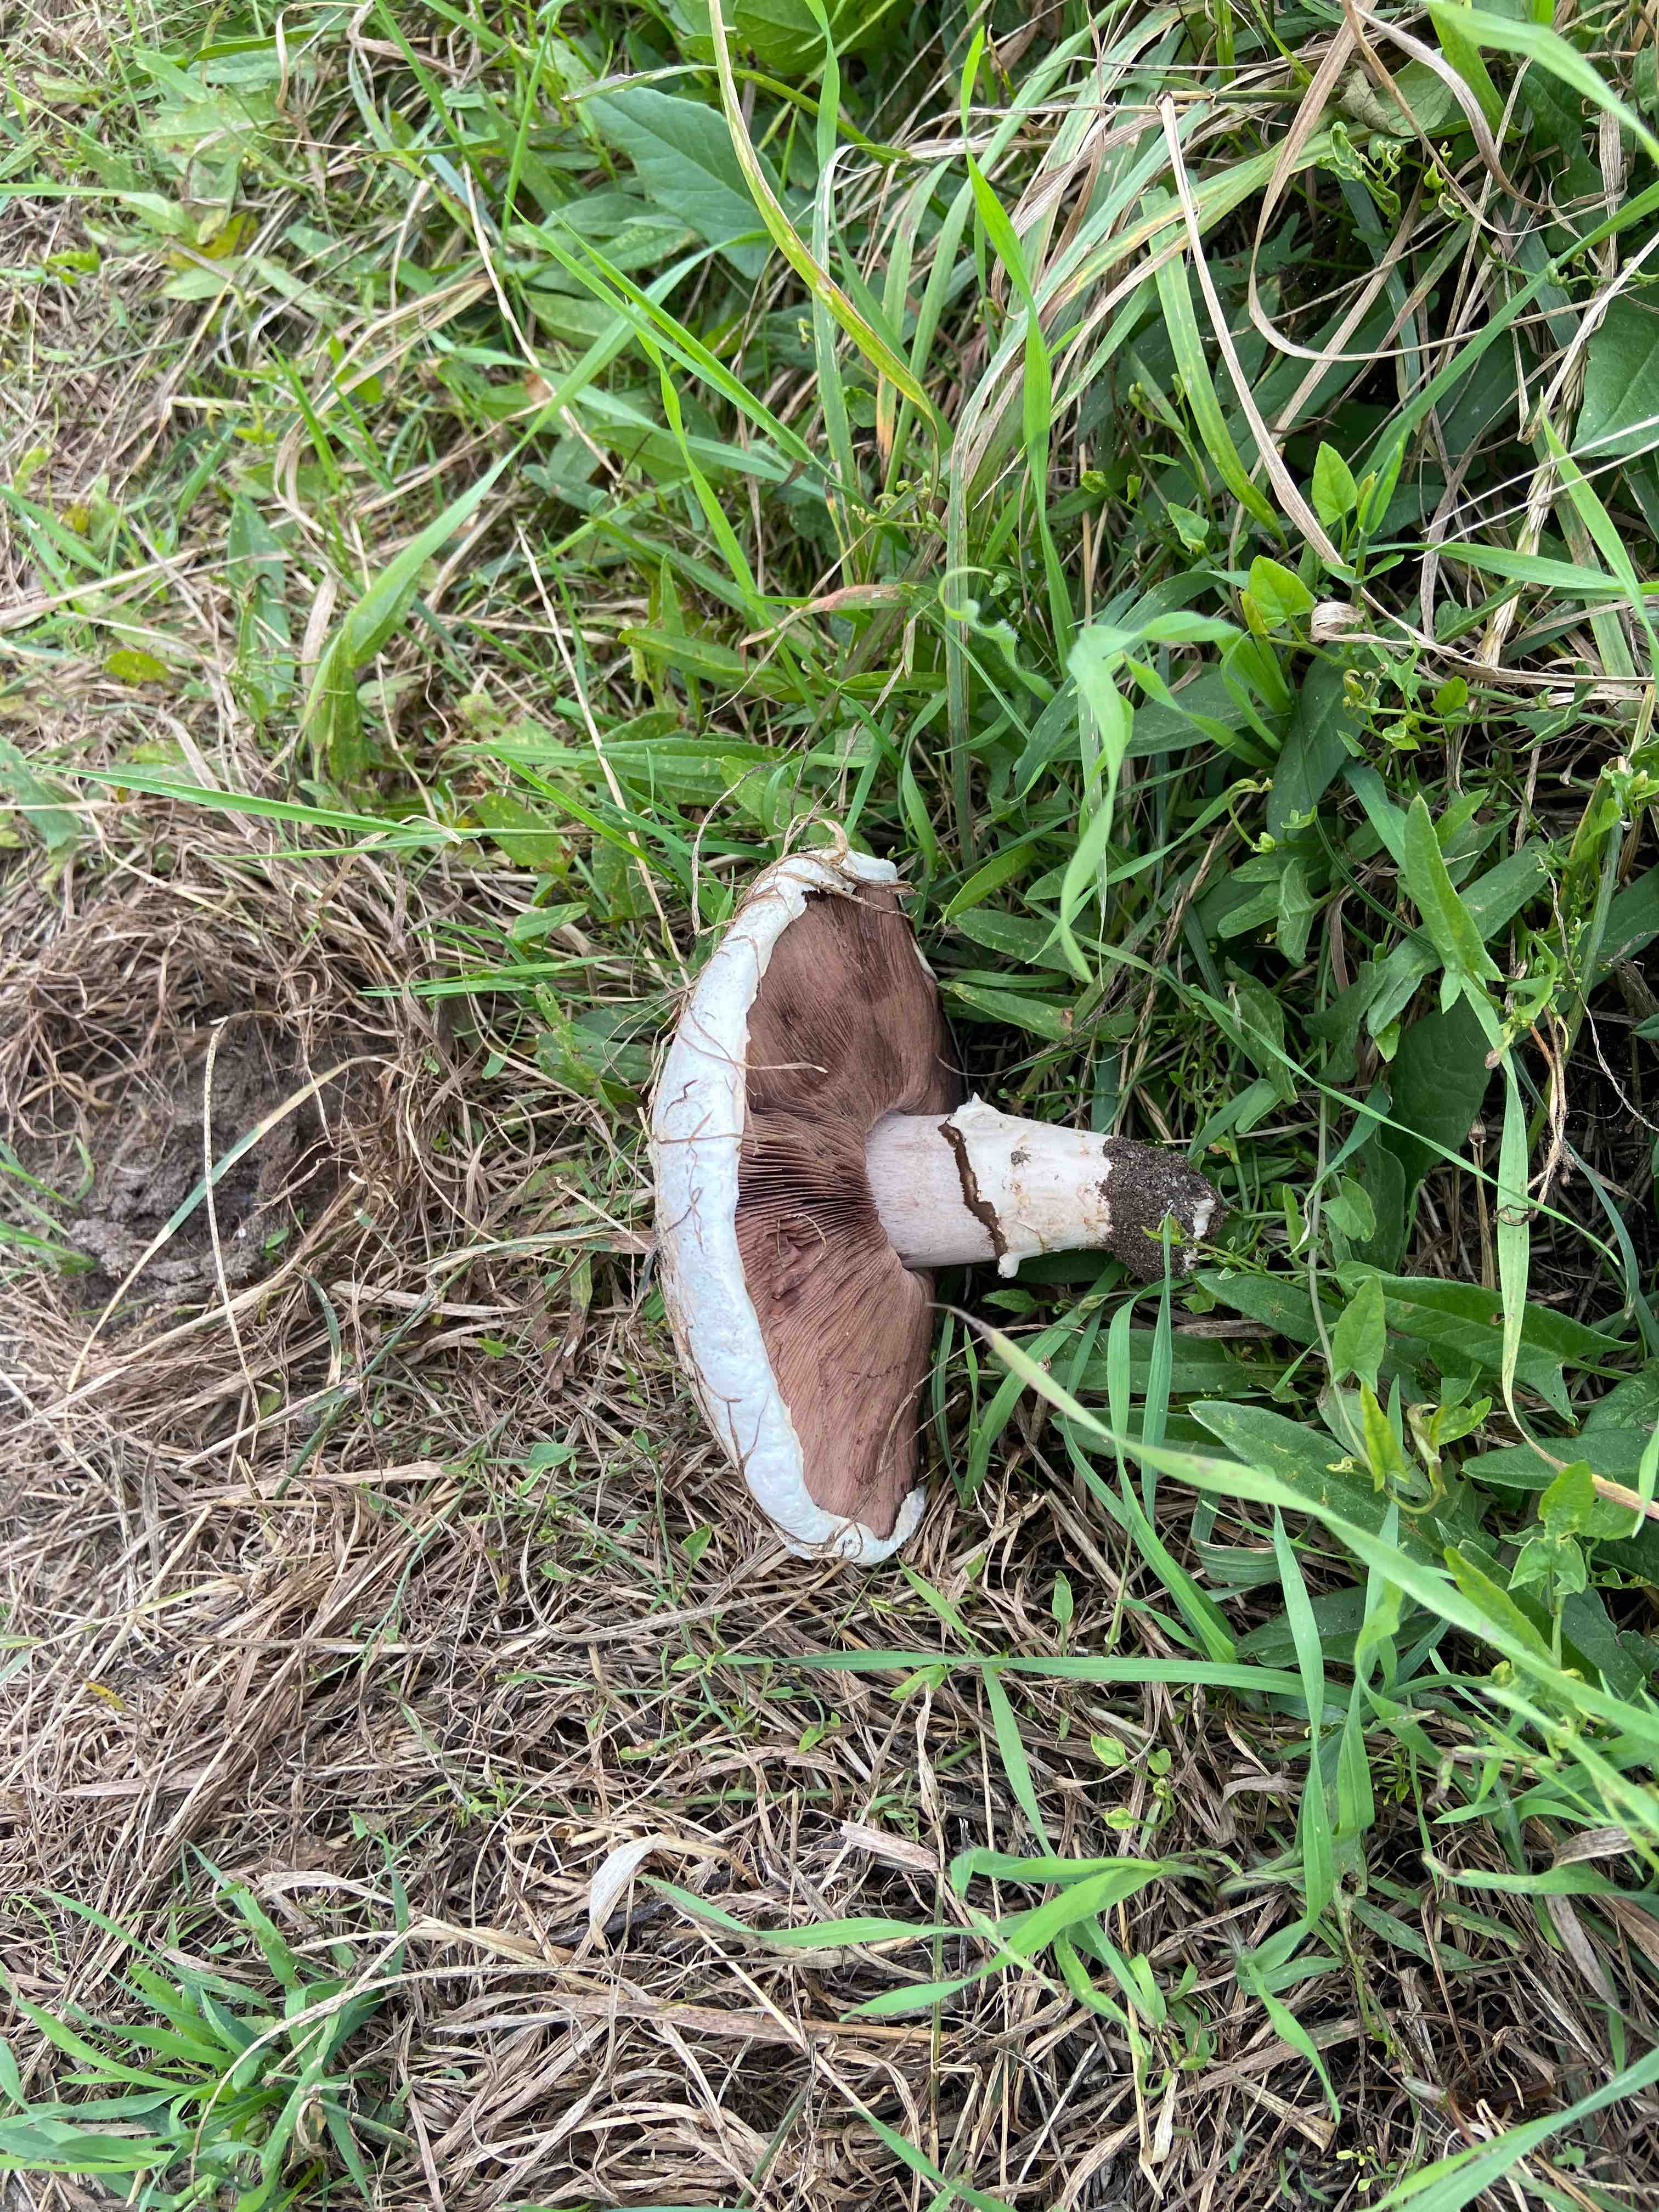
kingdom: Fungi
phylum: Basidiomycota
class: Agaricomycetes
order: Agaricales
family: Agaricaceae
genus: Agaricus
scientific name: Agaricus bitorquis
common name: vej-champignon
